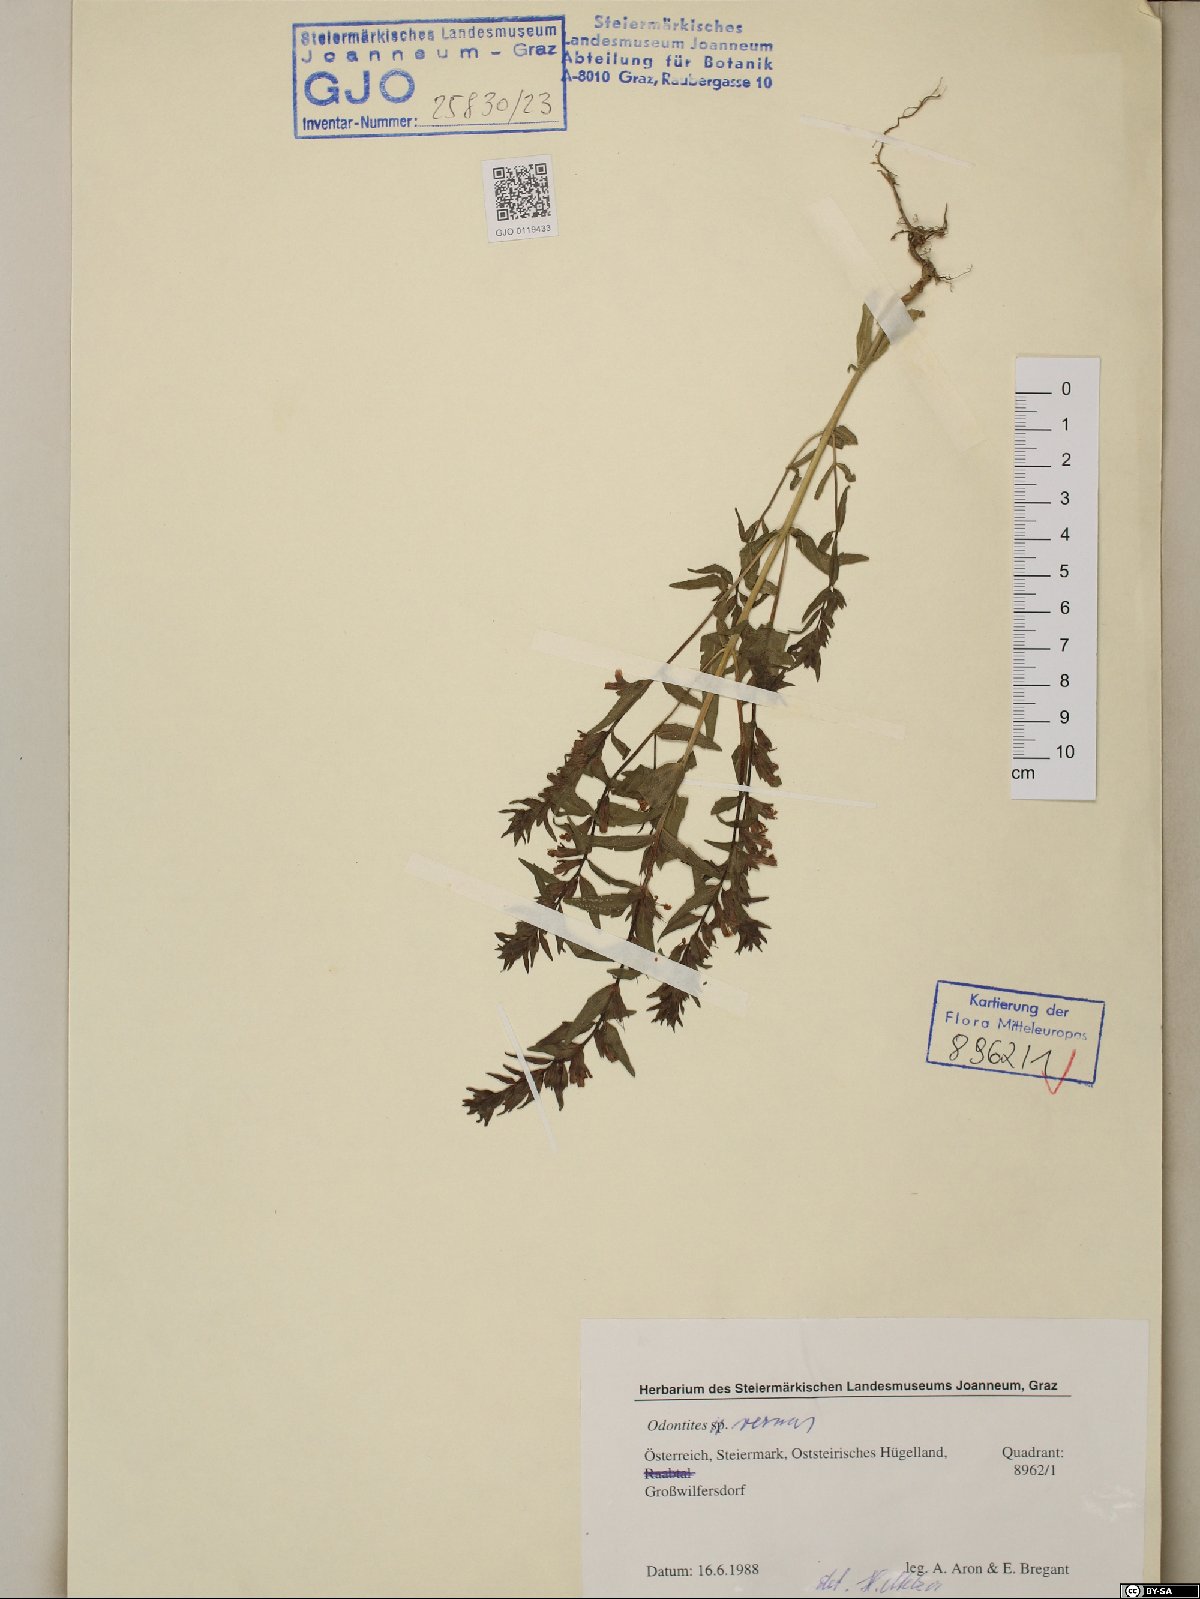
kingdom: Plantae
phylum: Tracheophyta
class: Magnoliopsida
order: Lamiales
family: Orobanchaceae
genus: Odontites
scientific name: Odontites vernus
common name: Red bartsia
